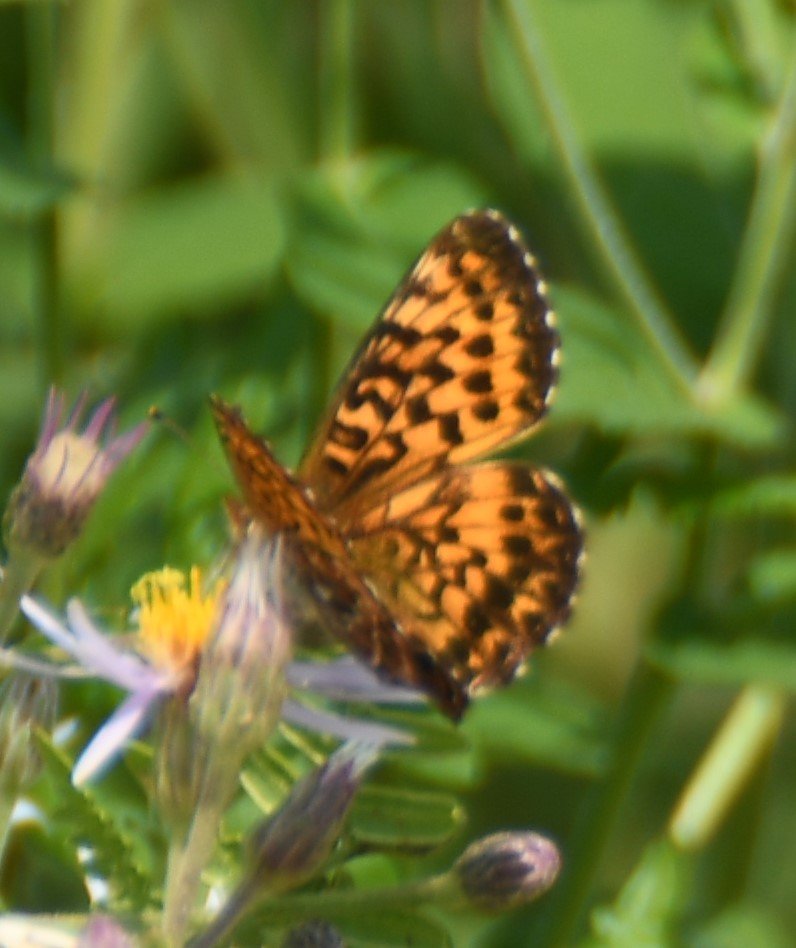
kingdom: Animalia
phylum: Arthropoda
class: Insecta
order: Lepidoptera
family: Nymphalidae
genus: Boloria
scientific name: Boloria chariclea
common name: Arctic Fritillary
